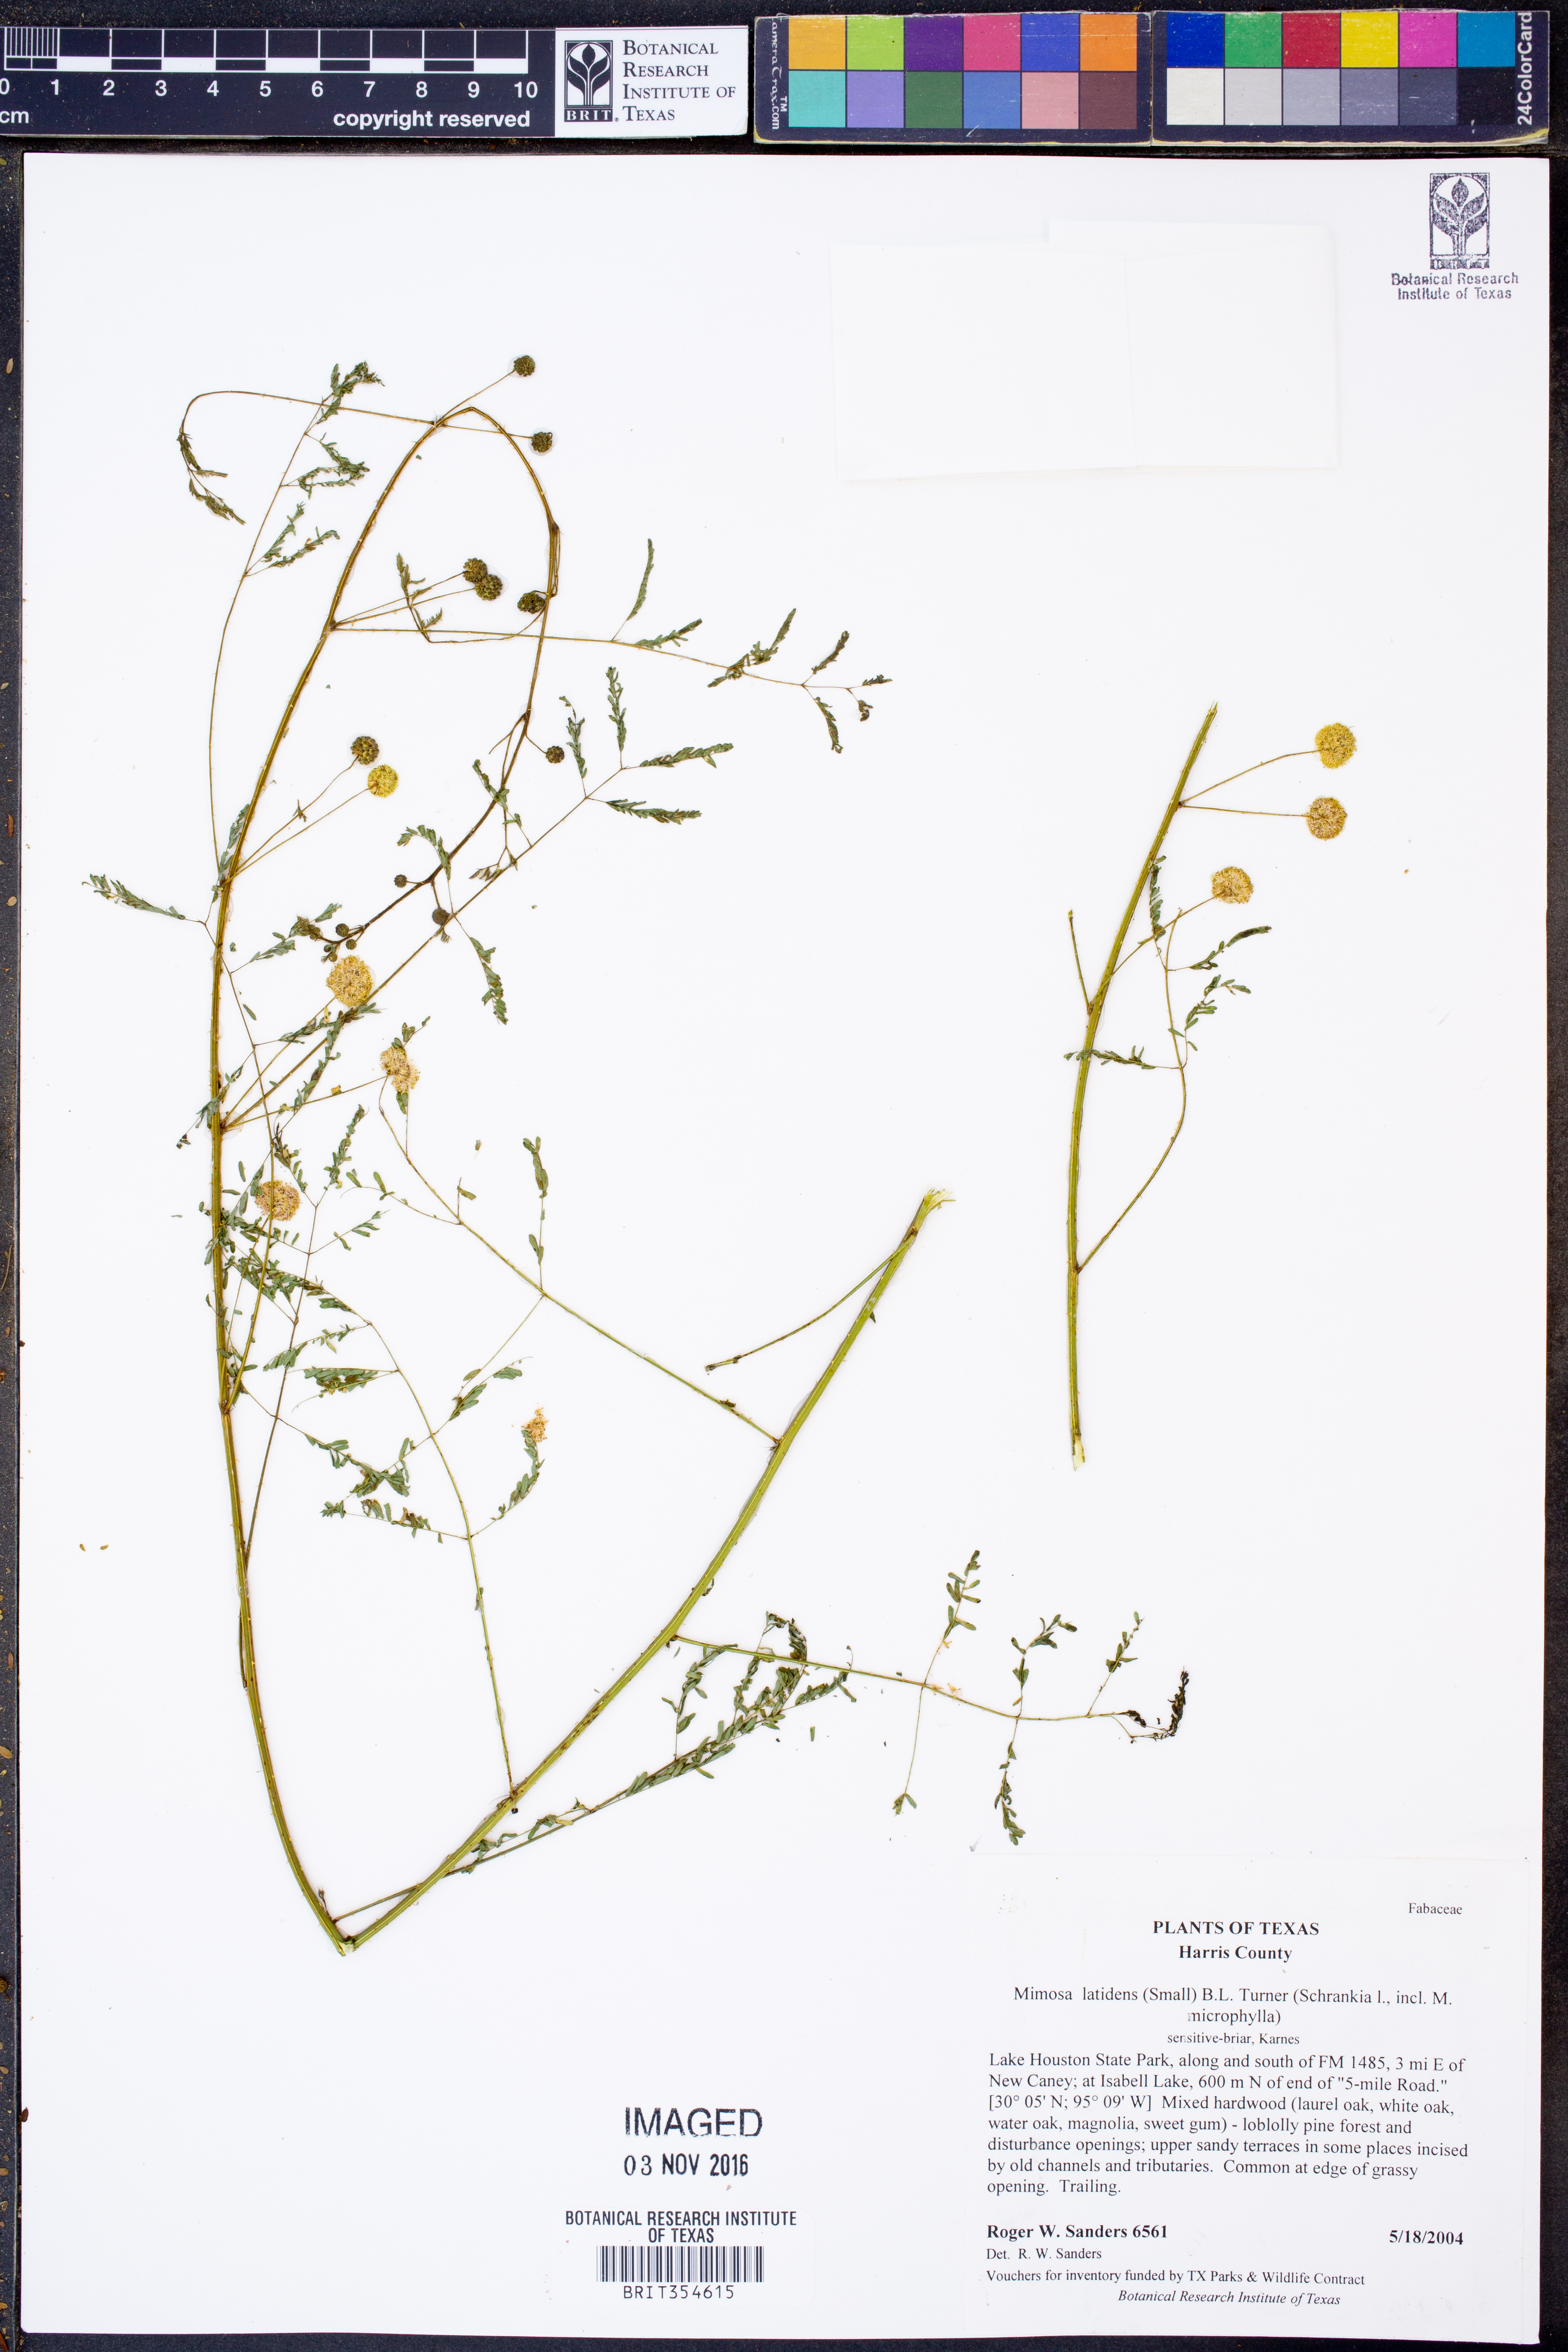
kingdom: Plantae
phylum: Tracheophyta
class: Magnoliopsida
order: Fabales
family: Fabaceae
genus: Mimosa
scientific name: Mimosa latidens
